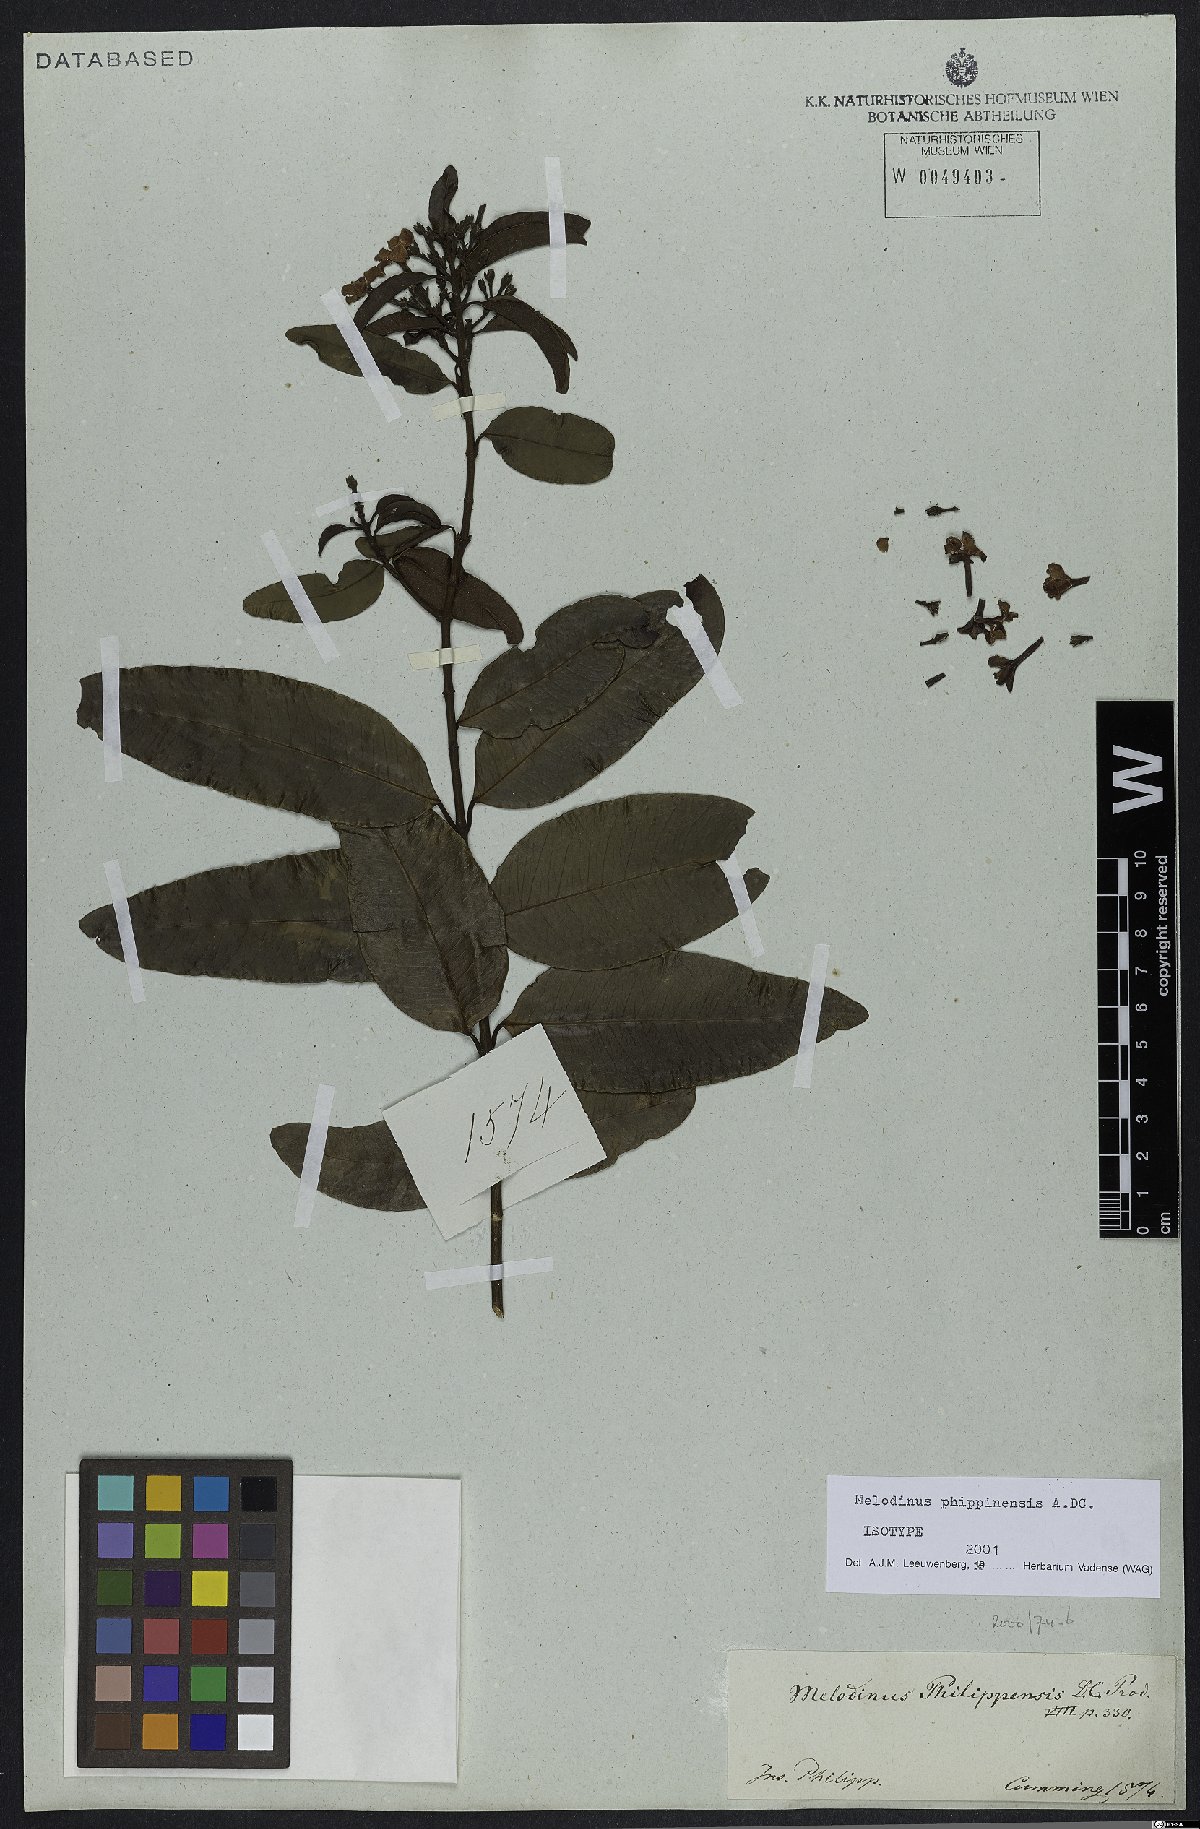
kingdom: Plantae
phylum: Tracheophyta
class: Magnoliopsida
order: Gentianales
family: Apocynaceae
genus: Melodinus
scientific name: Melodinus philippinensis
